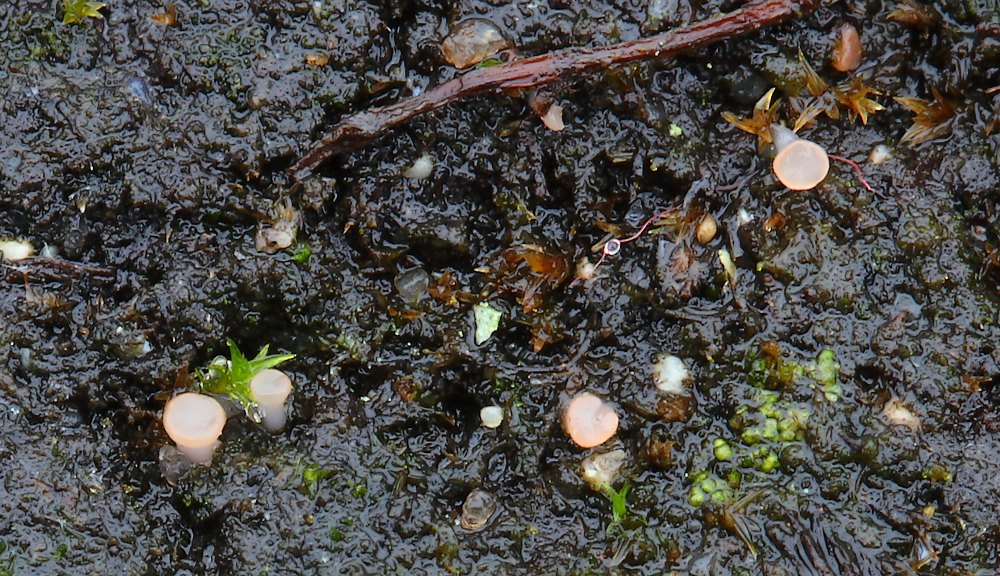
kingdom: Fungi
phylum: Ascomycota
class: Leotiomycetes
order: Helotiales
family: Hyaloscyphaceae
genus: Roseodiscus
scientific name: Roseodiscus formosus
